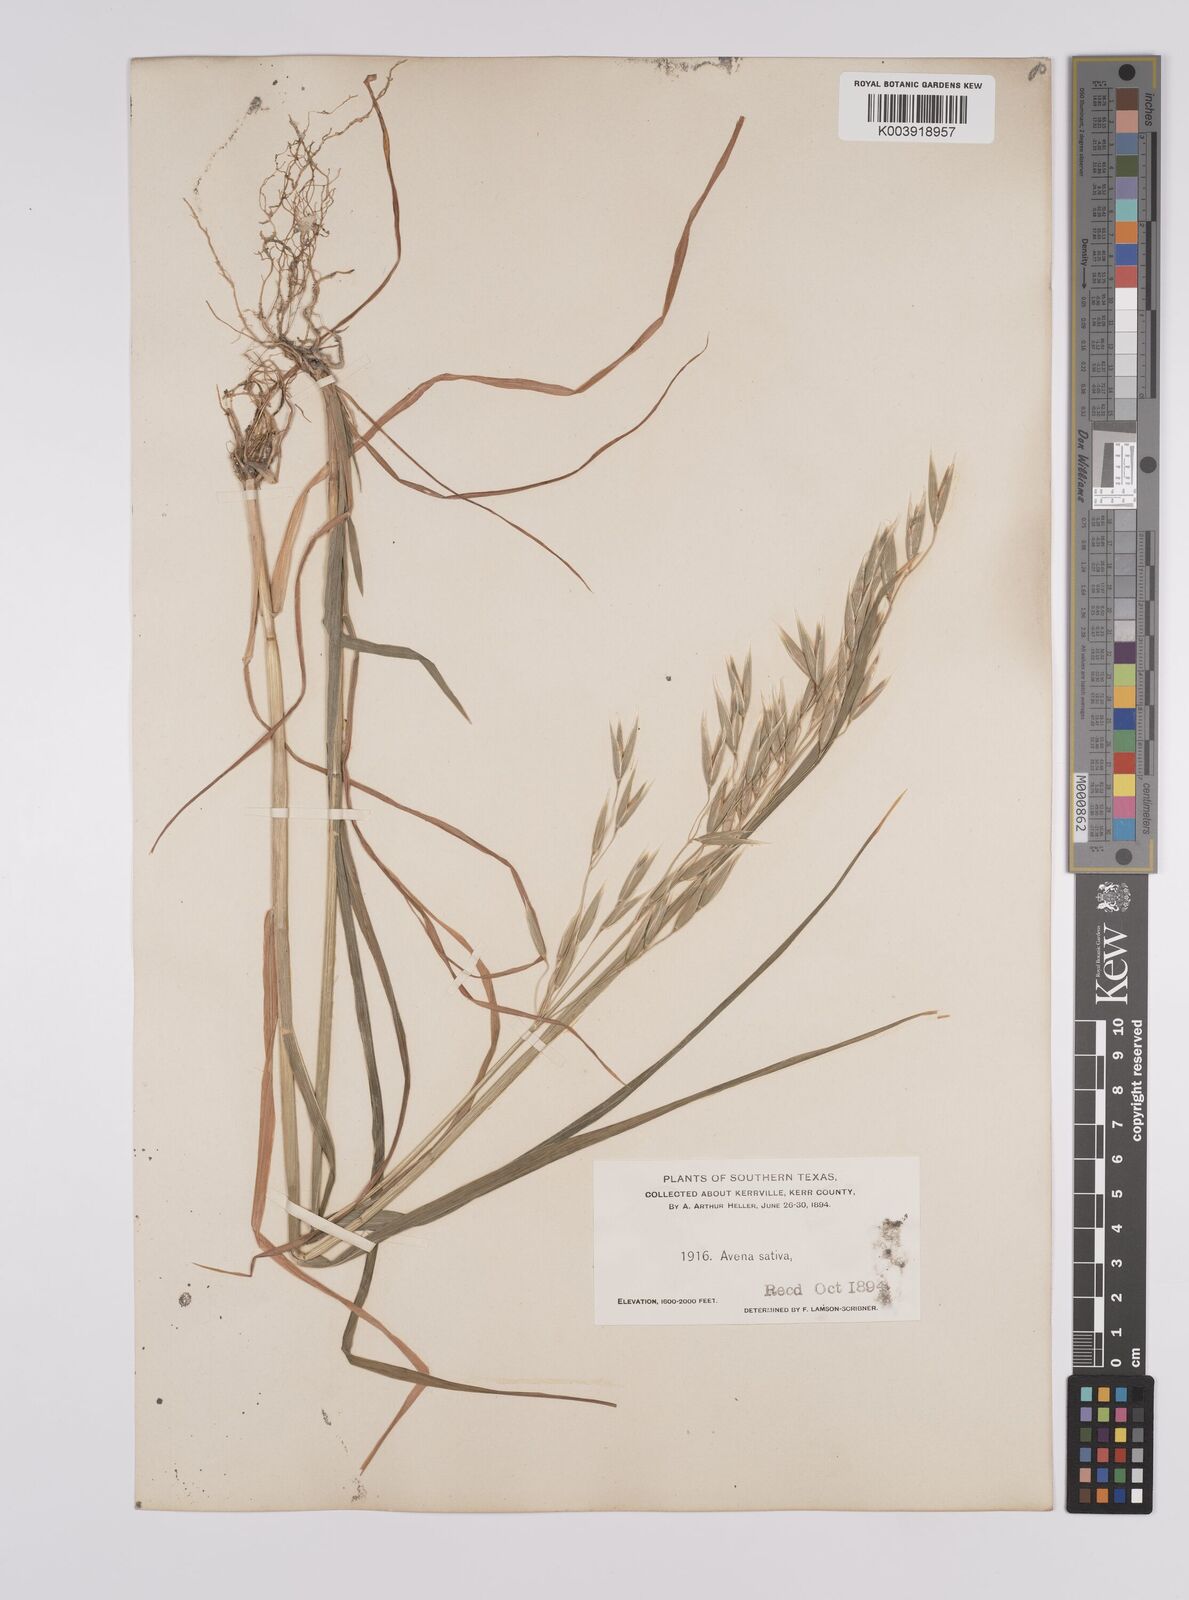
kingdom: Plantae
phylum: Tracheophyta
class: Liliopsida
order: Poales
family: Poaceae
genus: Avena
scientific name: Avena sativa
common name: Oat
